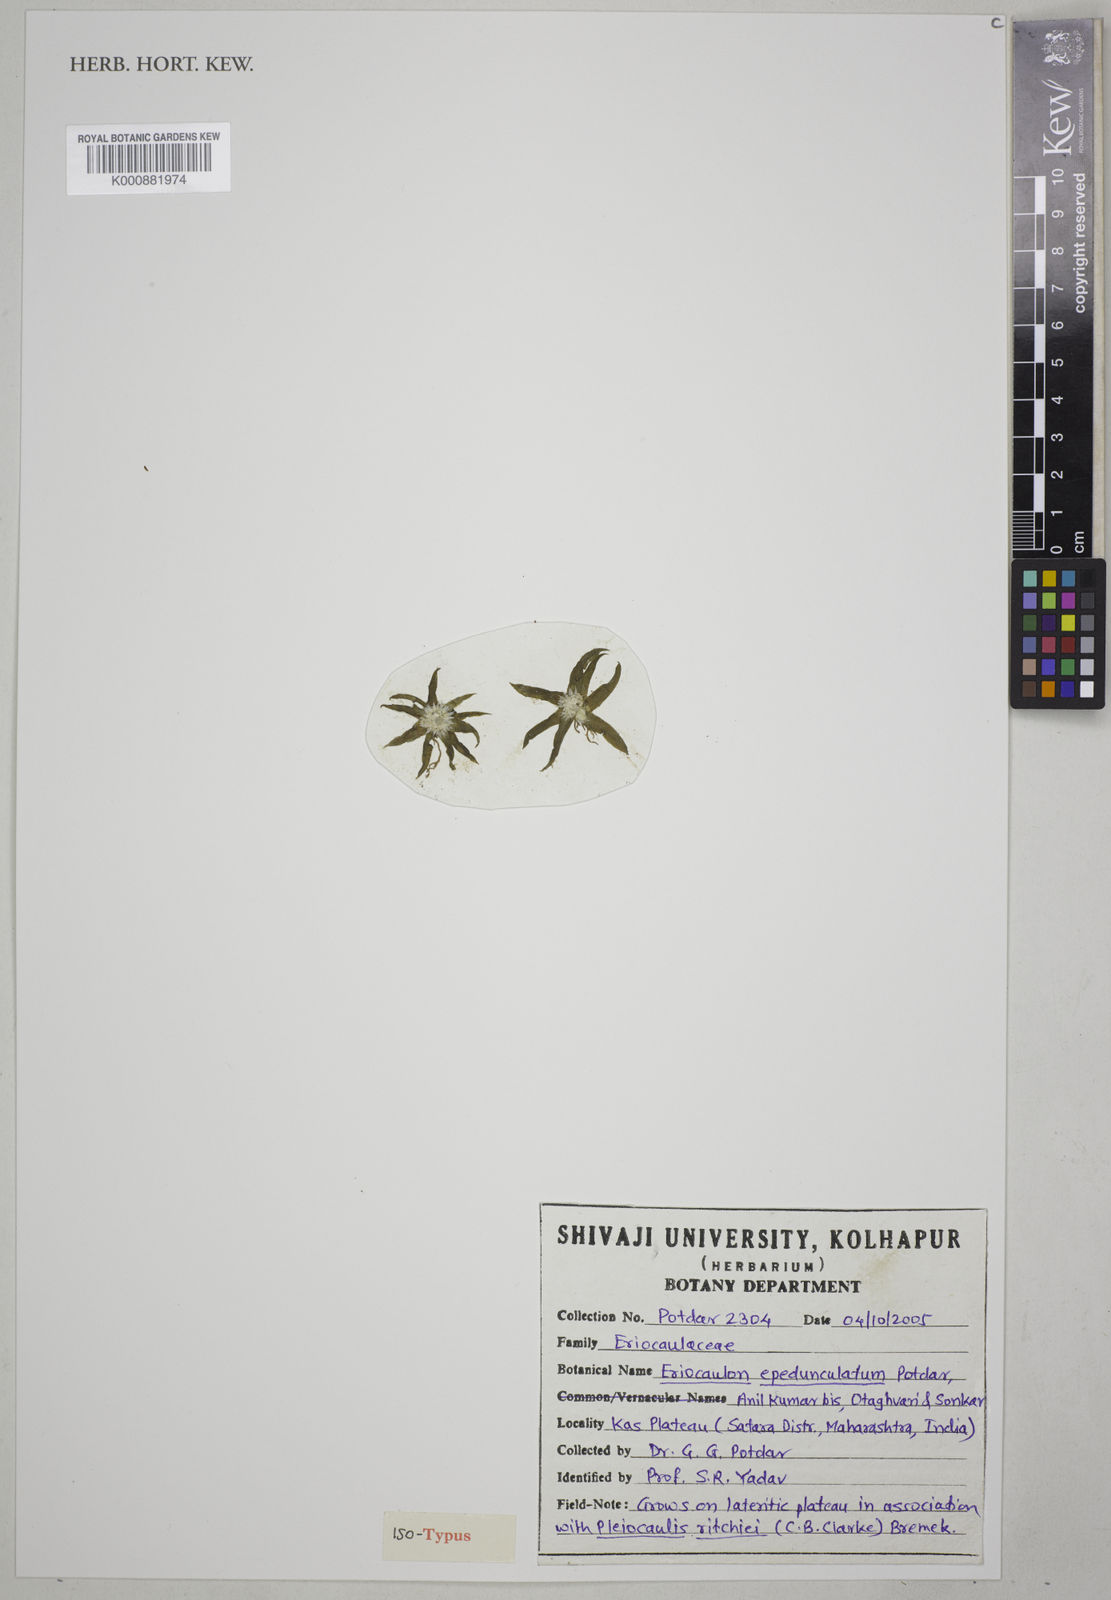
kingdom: Plantae
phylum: Tracheophyta
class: Liliopsida
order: Poales
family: Eriocaulaceae
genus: Eriocaulon
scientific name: Eriocaulon epedunculatum bis
